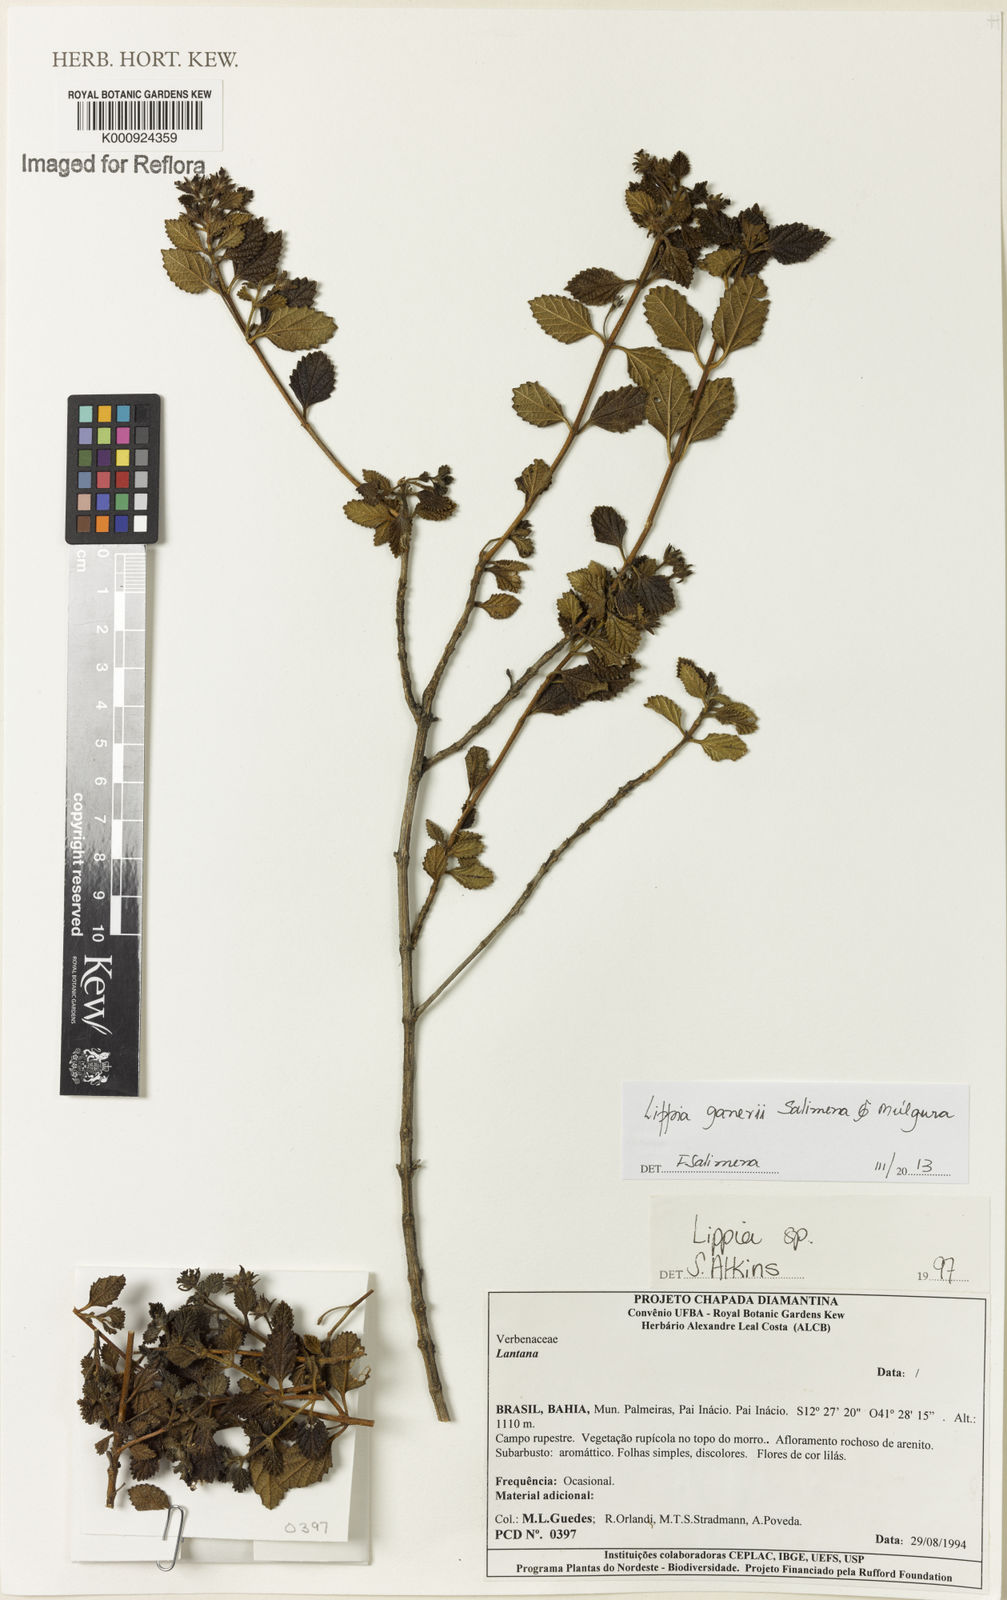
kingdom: Plantae
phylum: Tracheophyta
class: Magnoliopsida
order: Lamiales
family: Verbenaceae
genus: Lippia
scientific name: Lippia
